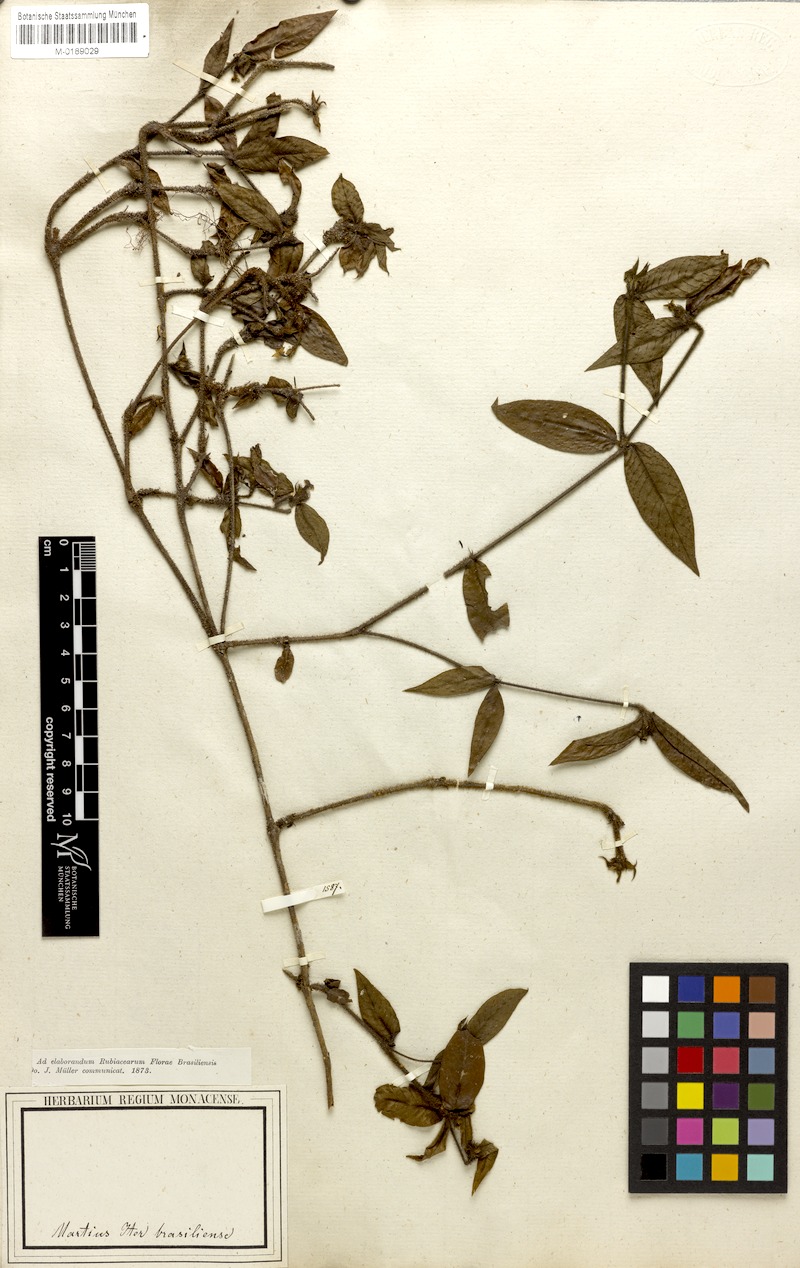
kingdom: Plantae
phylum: Tracheophyta
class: Magnoliopsida
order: Gentianales
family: Rubiaceae
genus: Palicourea
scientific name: Palicourea iodotricha
